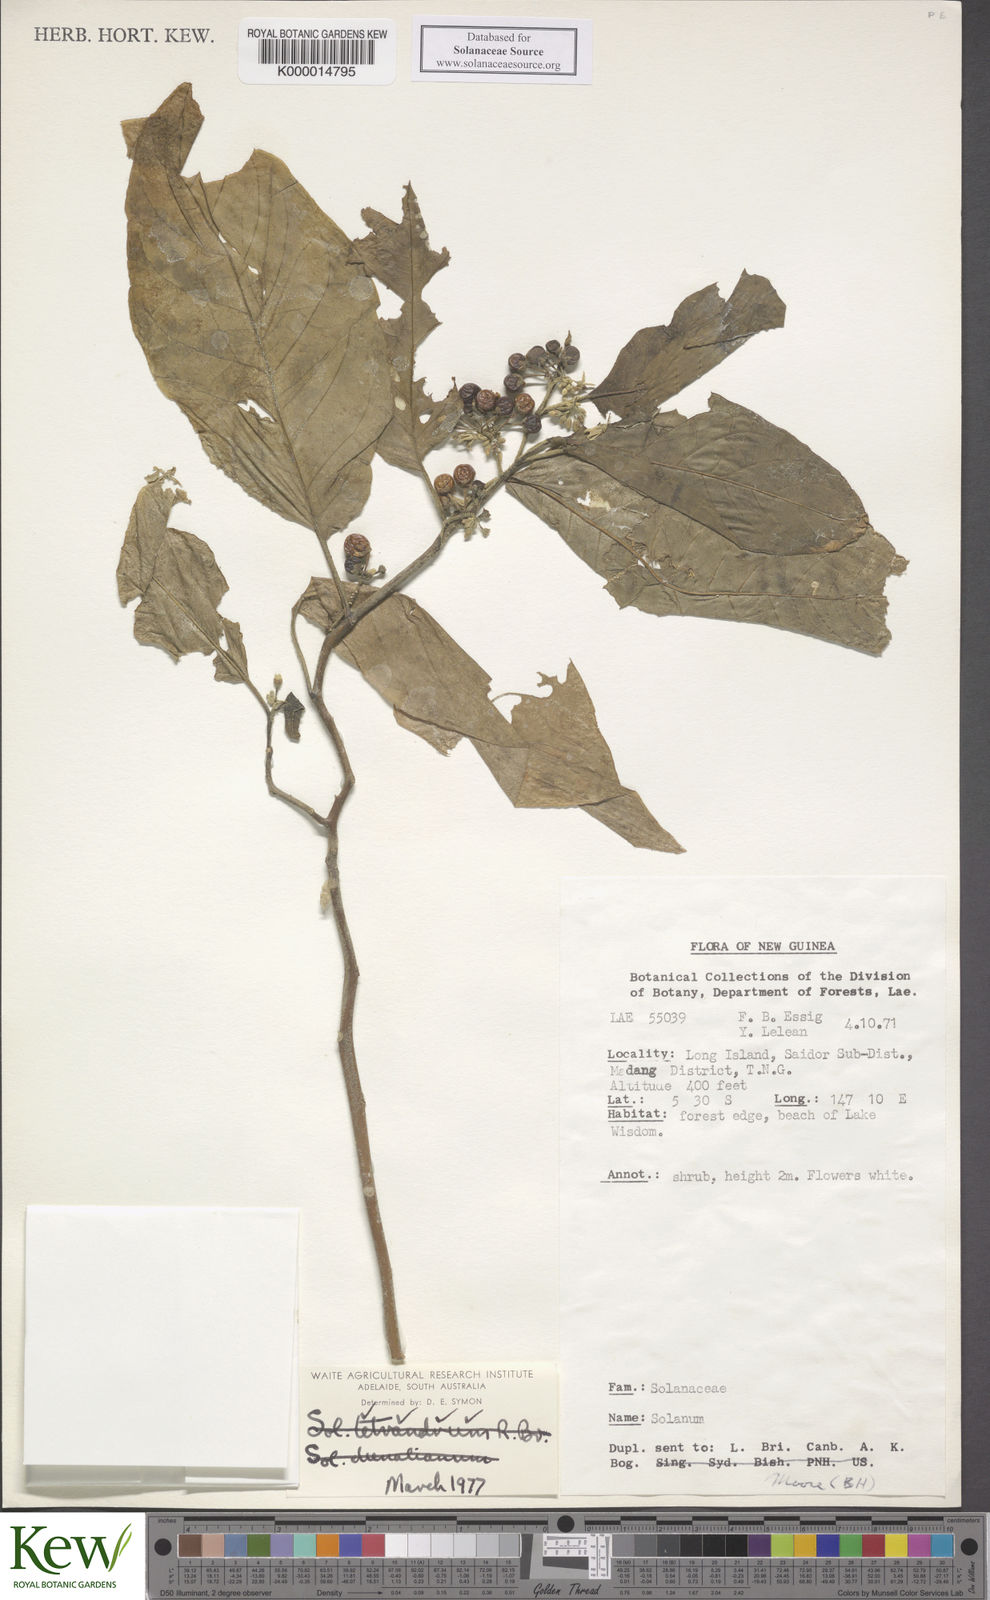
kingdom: Plantae
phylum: Tracheophyta
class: Magnoliopsida
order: Solanales
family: Solanaceae
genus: Solanum
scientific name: Solanum peekelii
